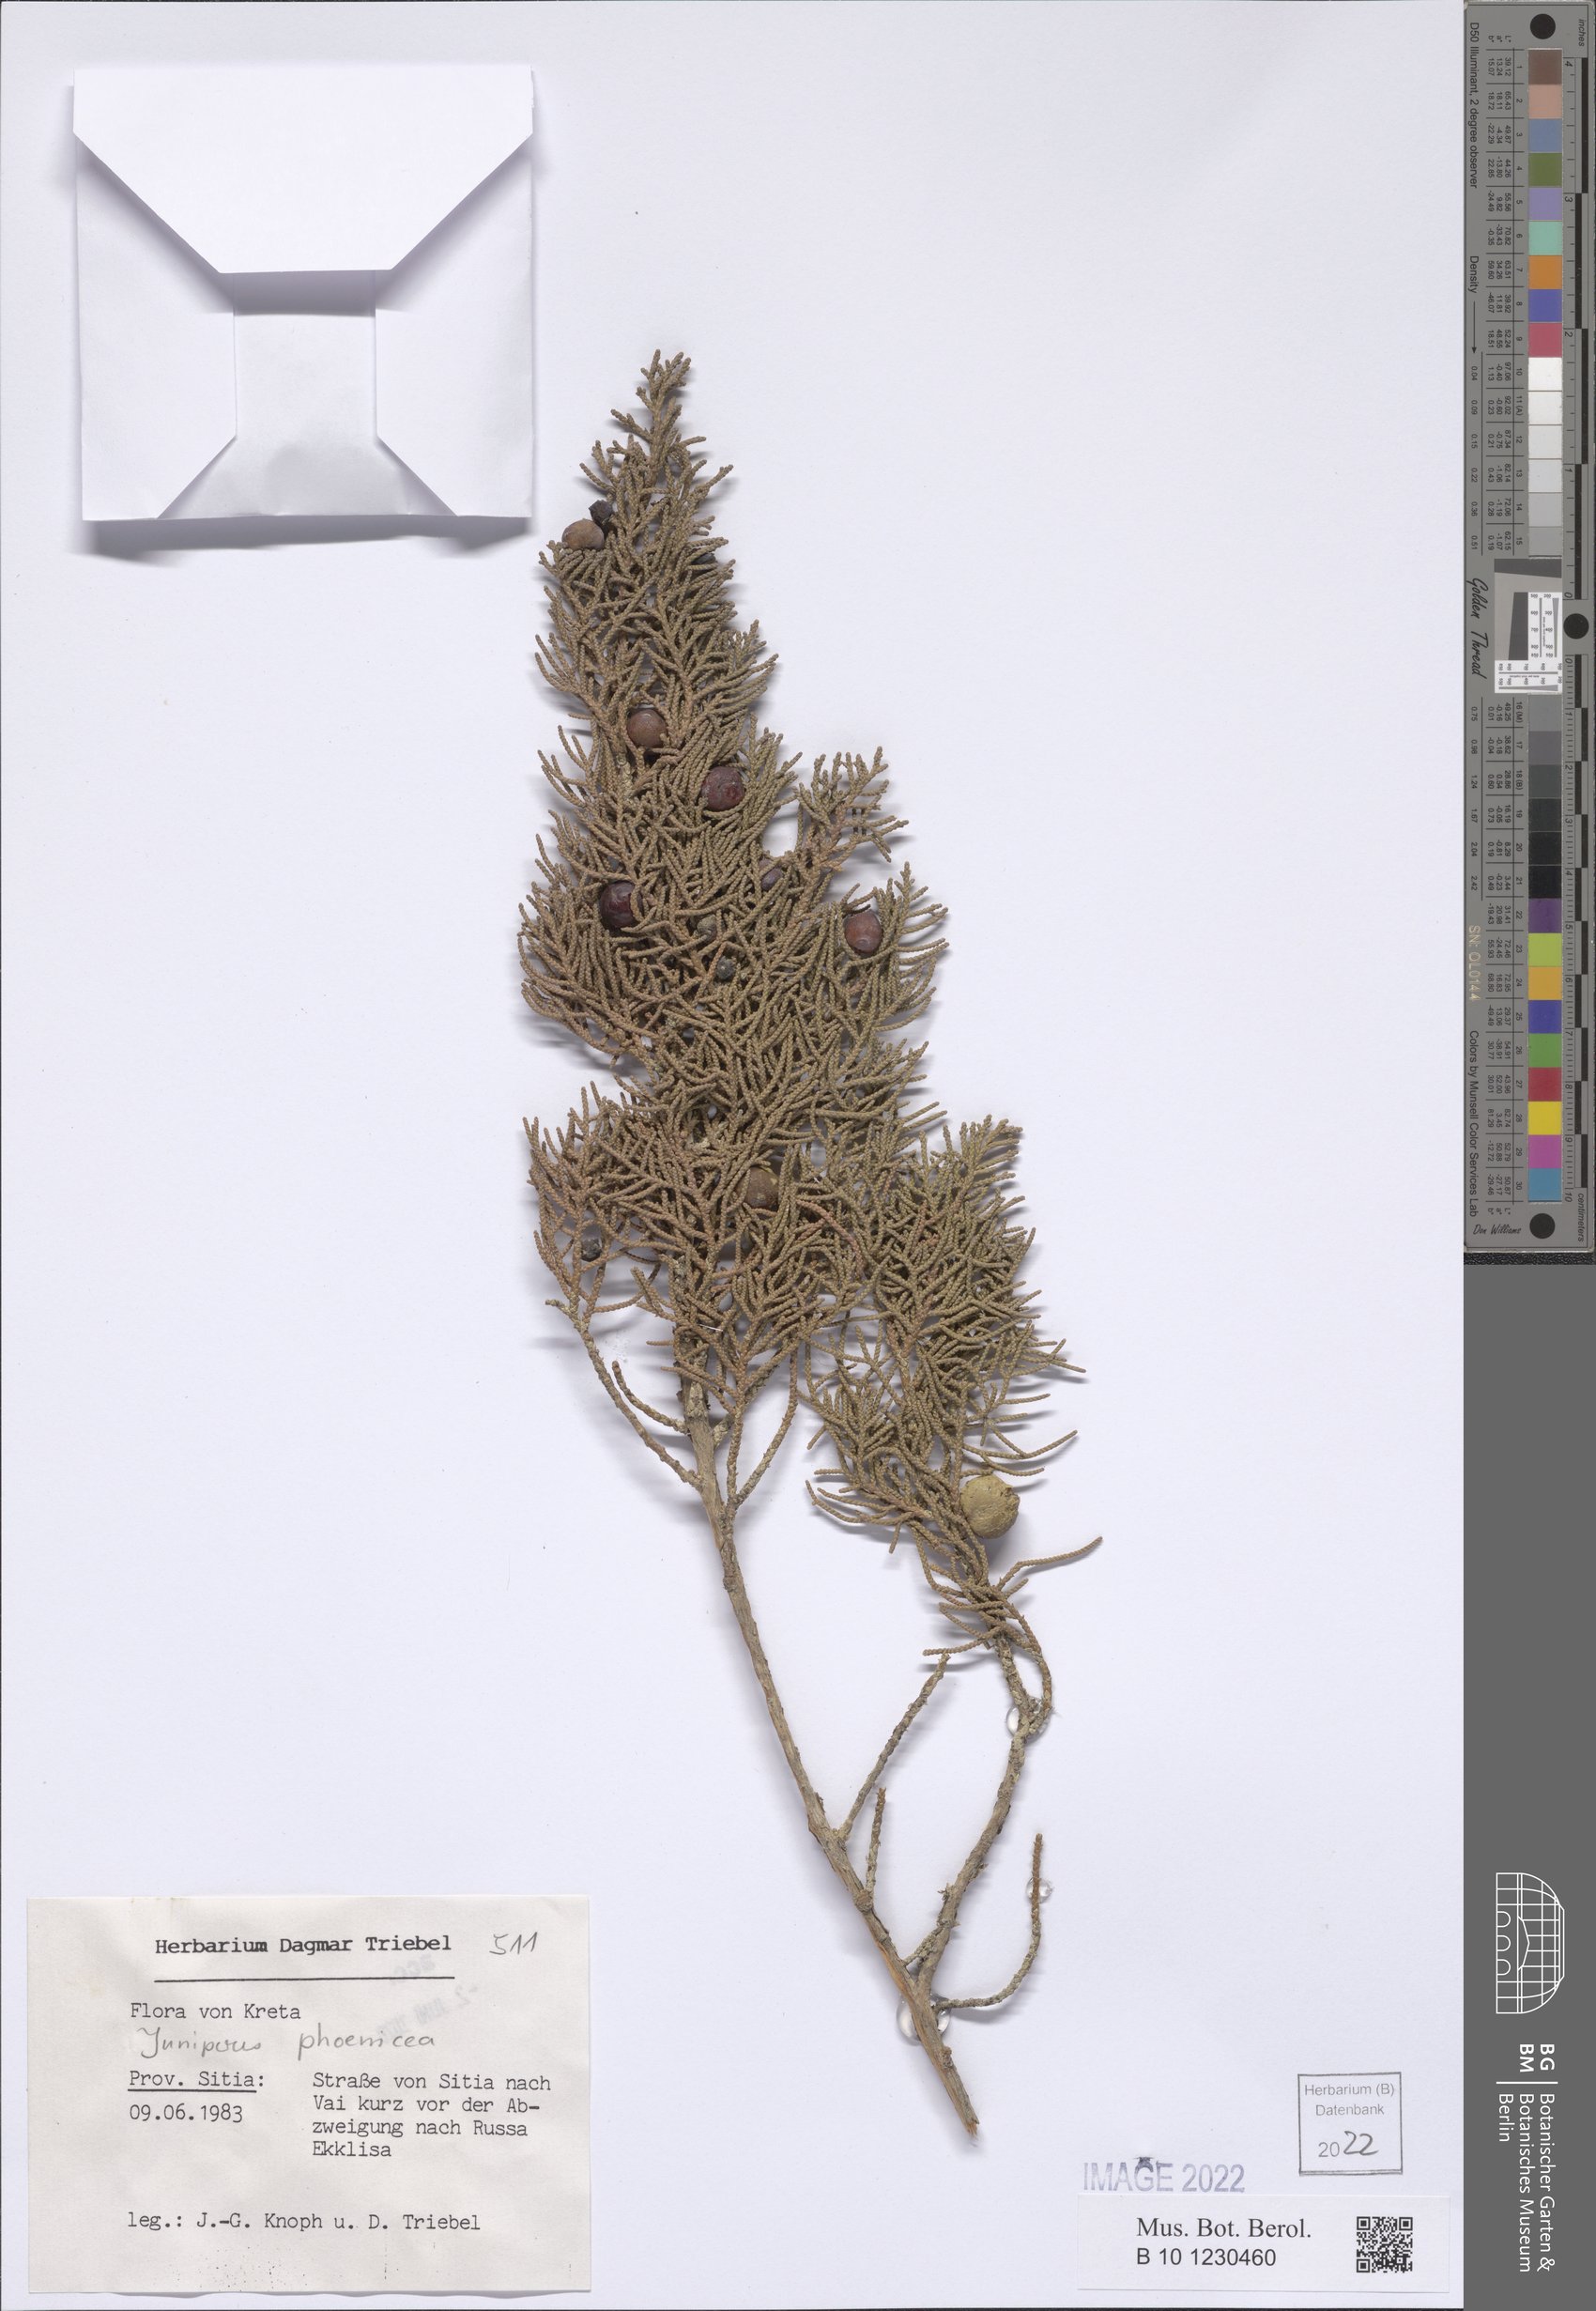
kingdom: Plantae
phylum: Tracheophyta
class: Pinopsida
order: Pinales
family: Cupressaceae
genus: Juniperus
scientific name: Juniperus phoenicea
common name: Phoenician juniper
